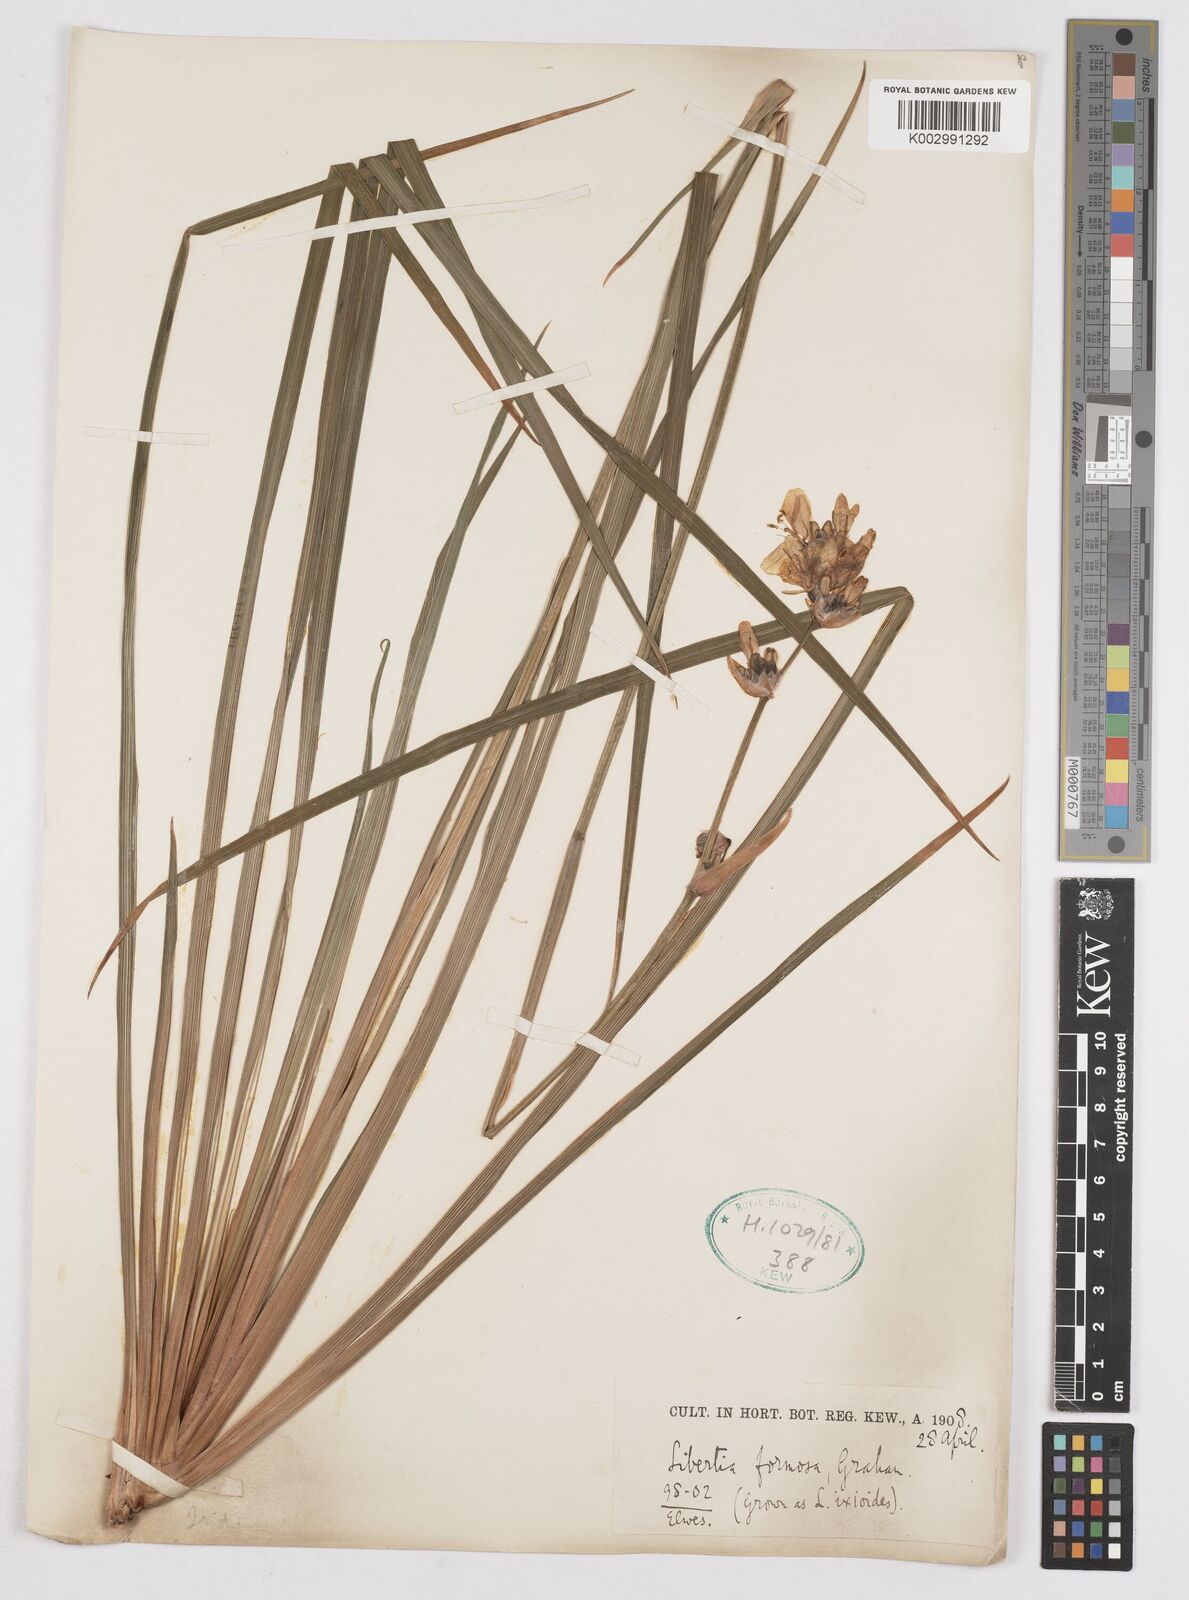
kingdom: Plantae
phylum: Tracheophyta
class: Liliopsida
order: Asparagales
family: Iridaceae
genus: Libertia
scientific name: Libertia chilensis
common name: Satin flower
